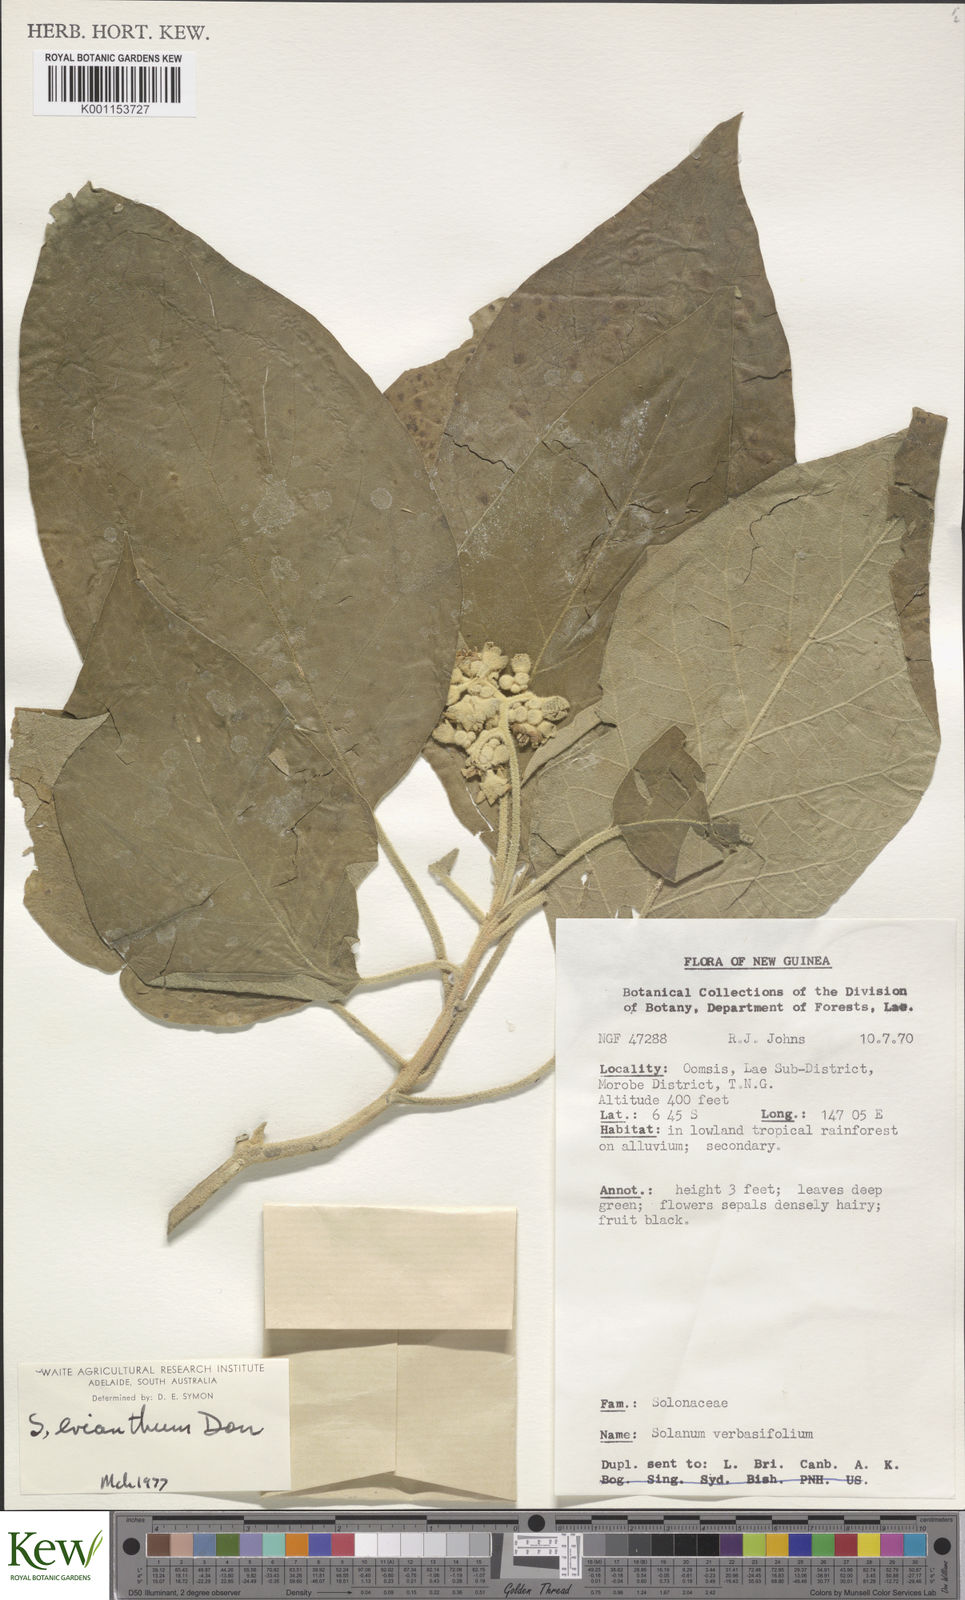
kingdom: Plantae
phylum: Tracheophyta
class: Magnoliopsida
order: Solanales
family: Solanaceae
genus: Solanum
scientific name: Solanum erianthum
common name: Tobacco-tree
